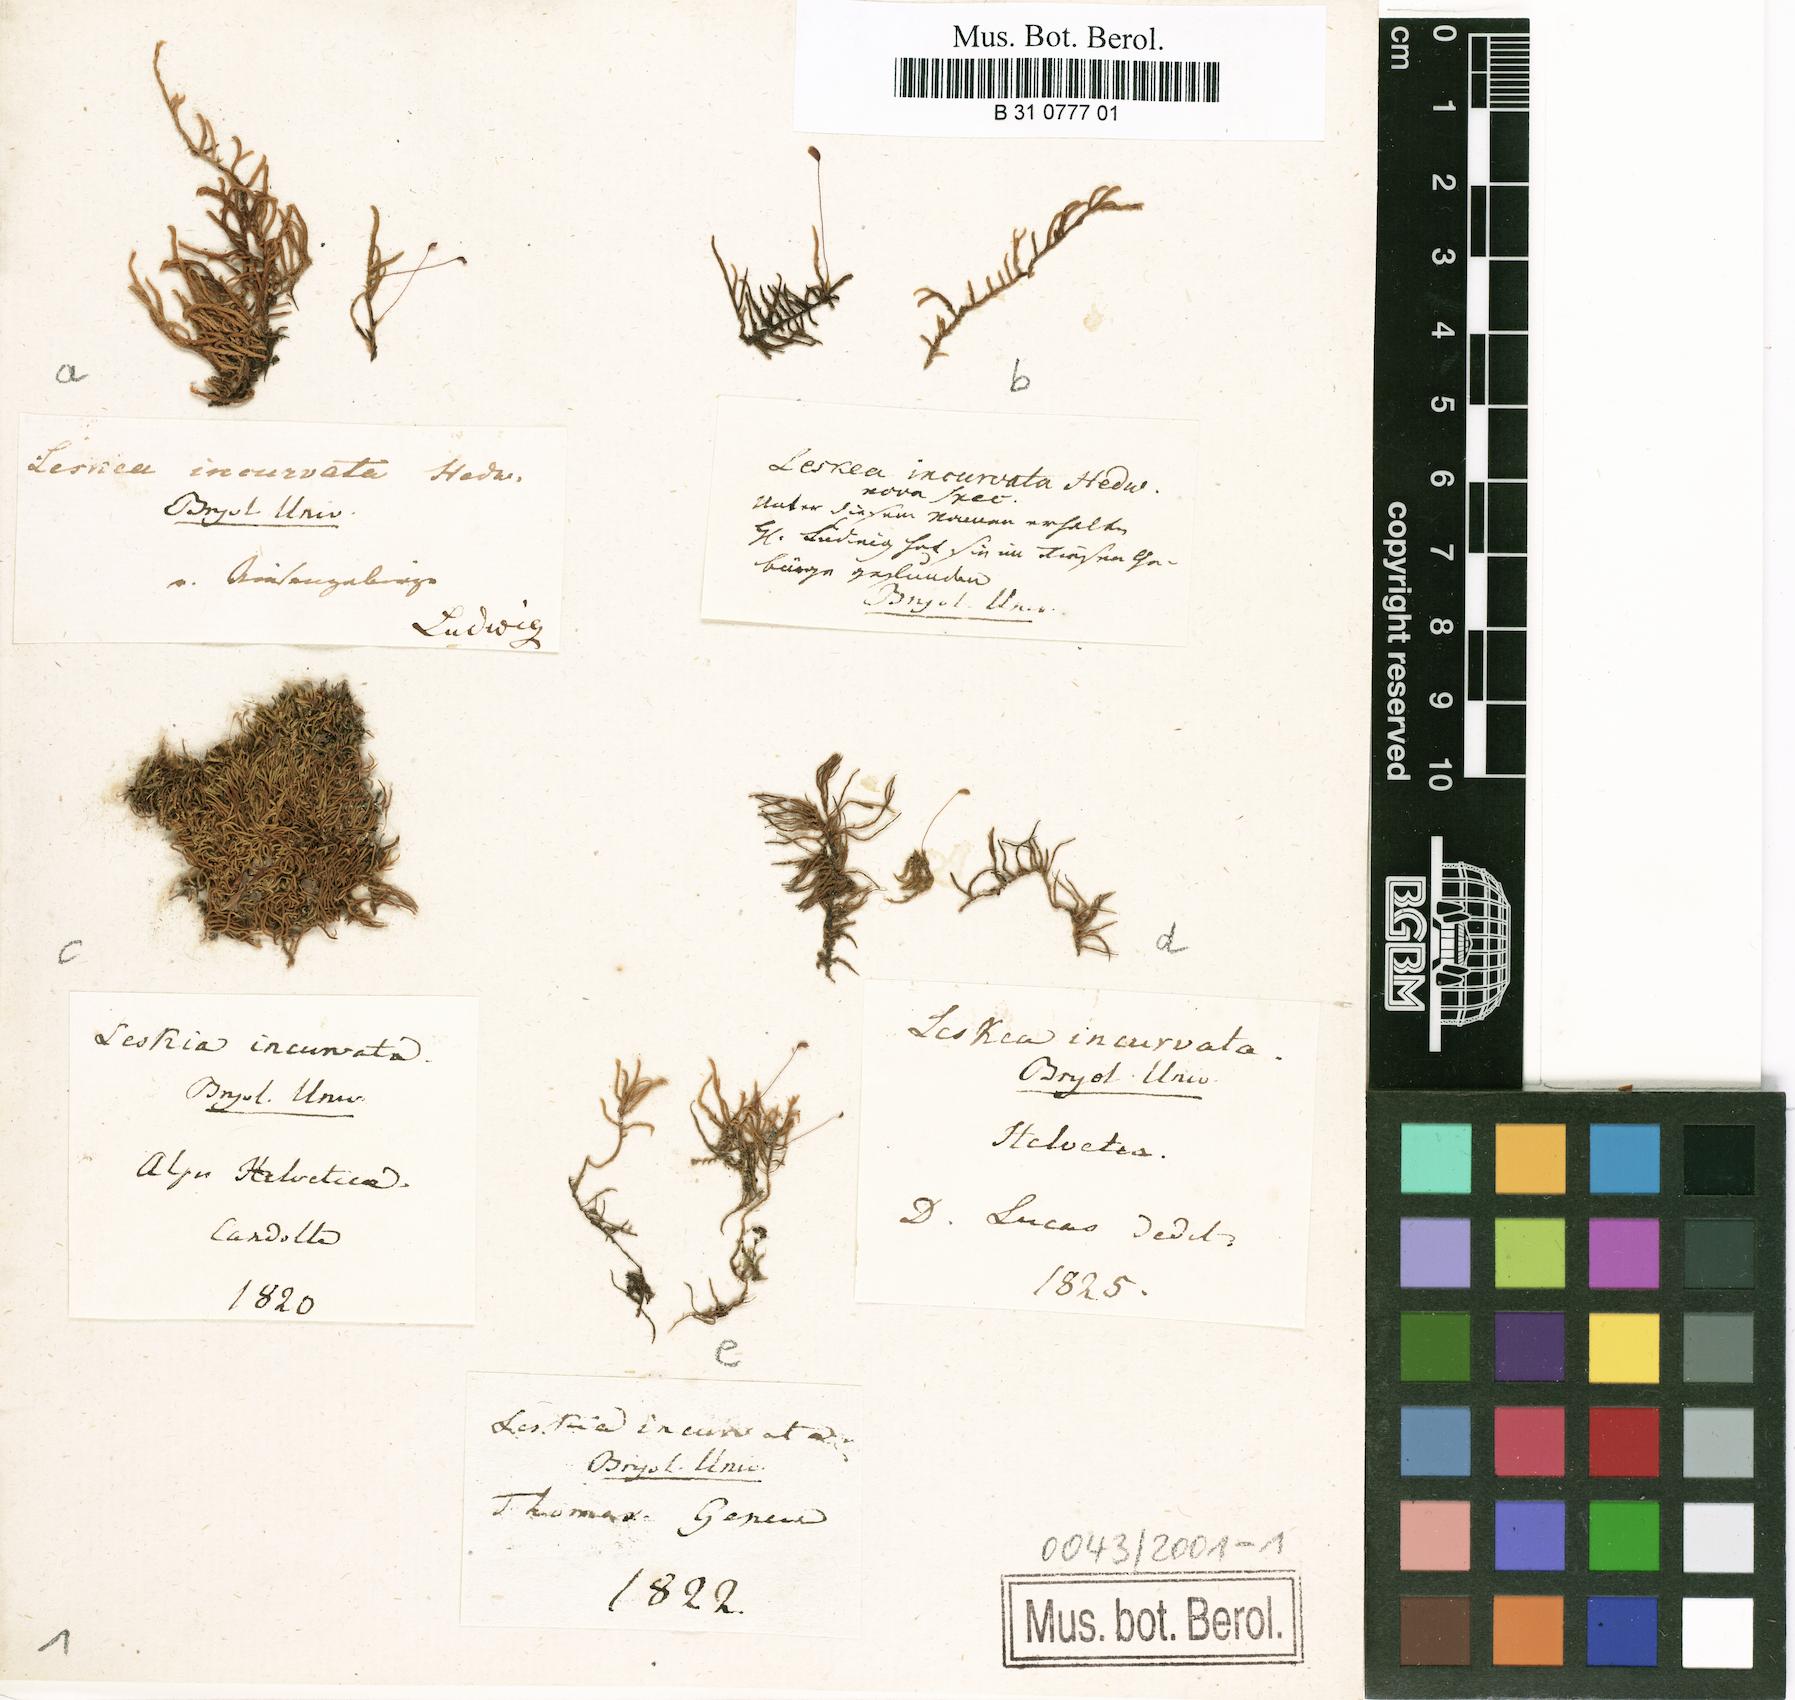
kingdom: Plantae
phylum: Bryophyta
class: Bryopsida
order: Hypnales
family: Pseudoleskeaceae
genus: Lescuraea
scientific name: Lescuraea incurvata
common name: Brown mountain leskea
